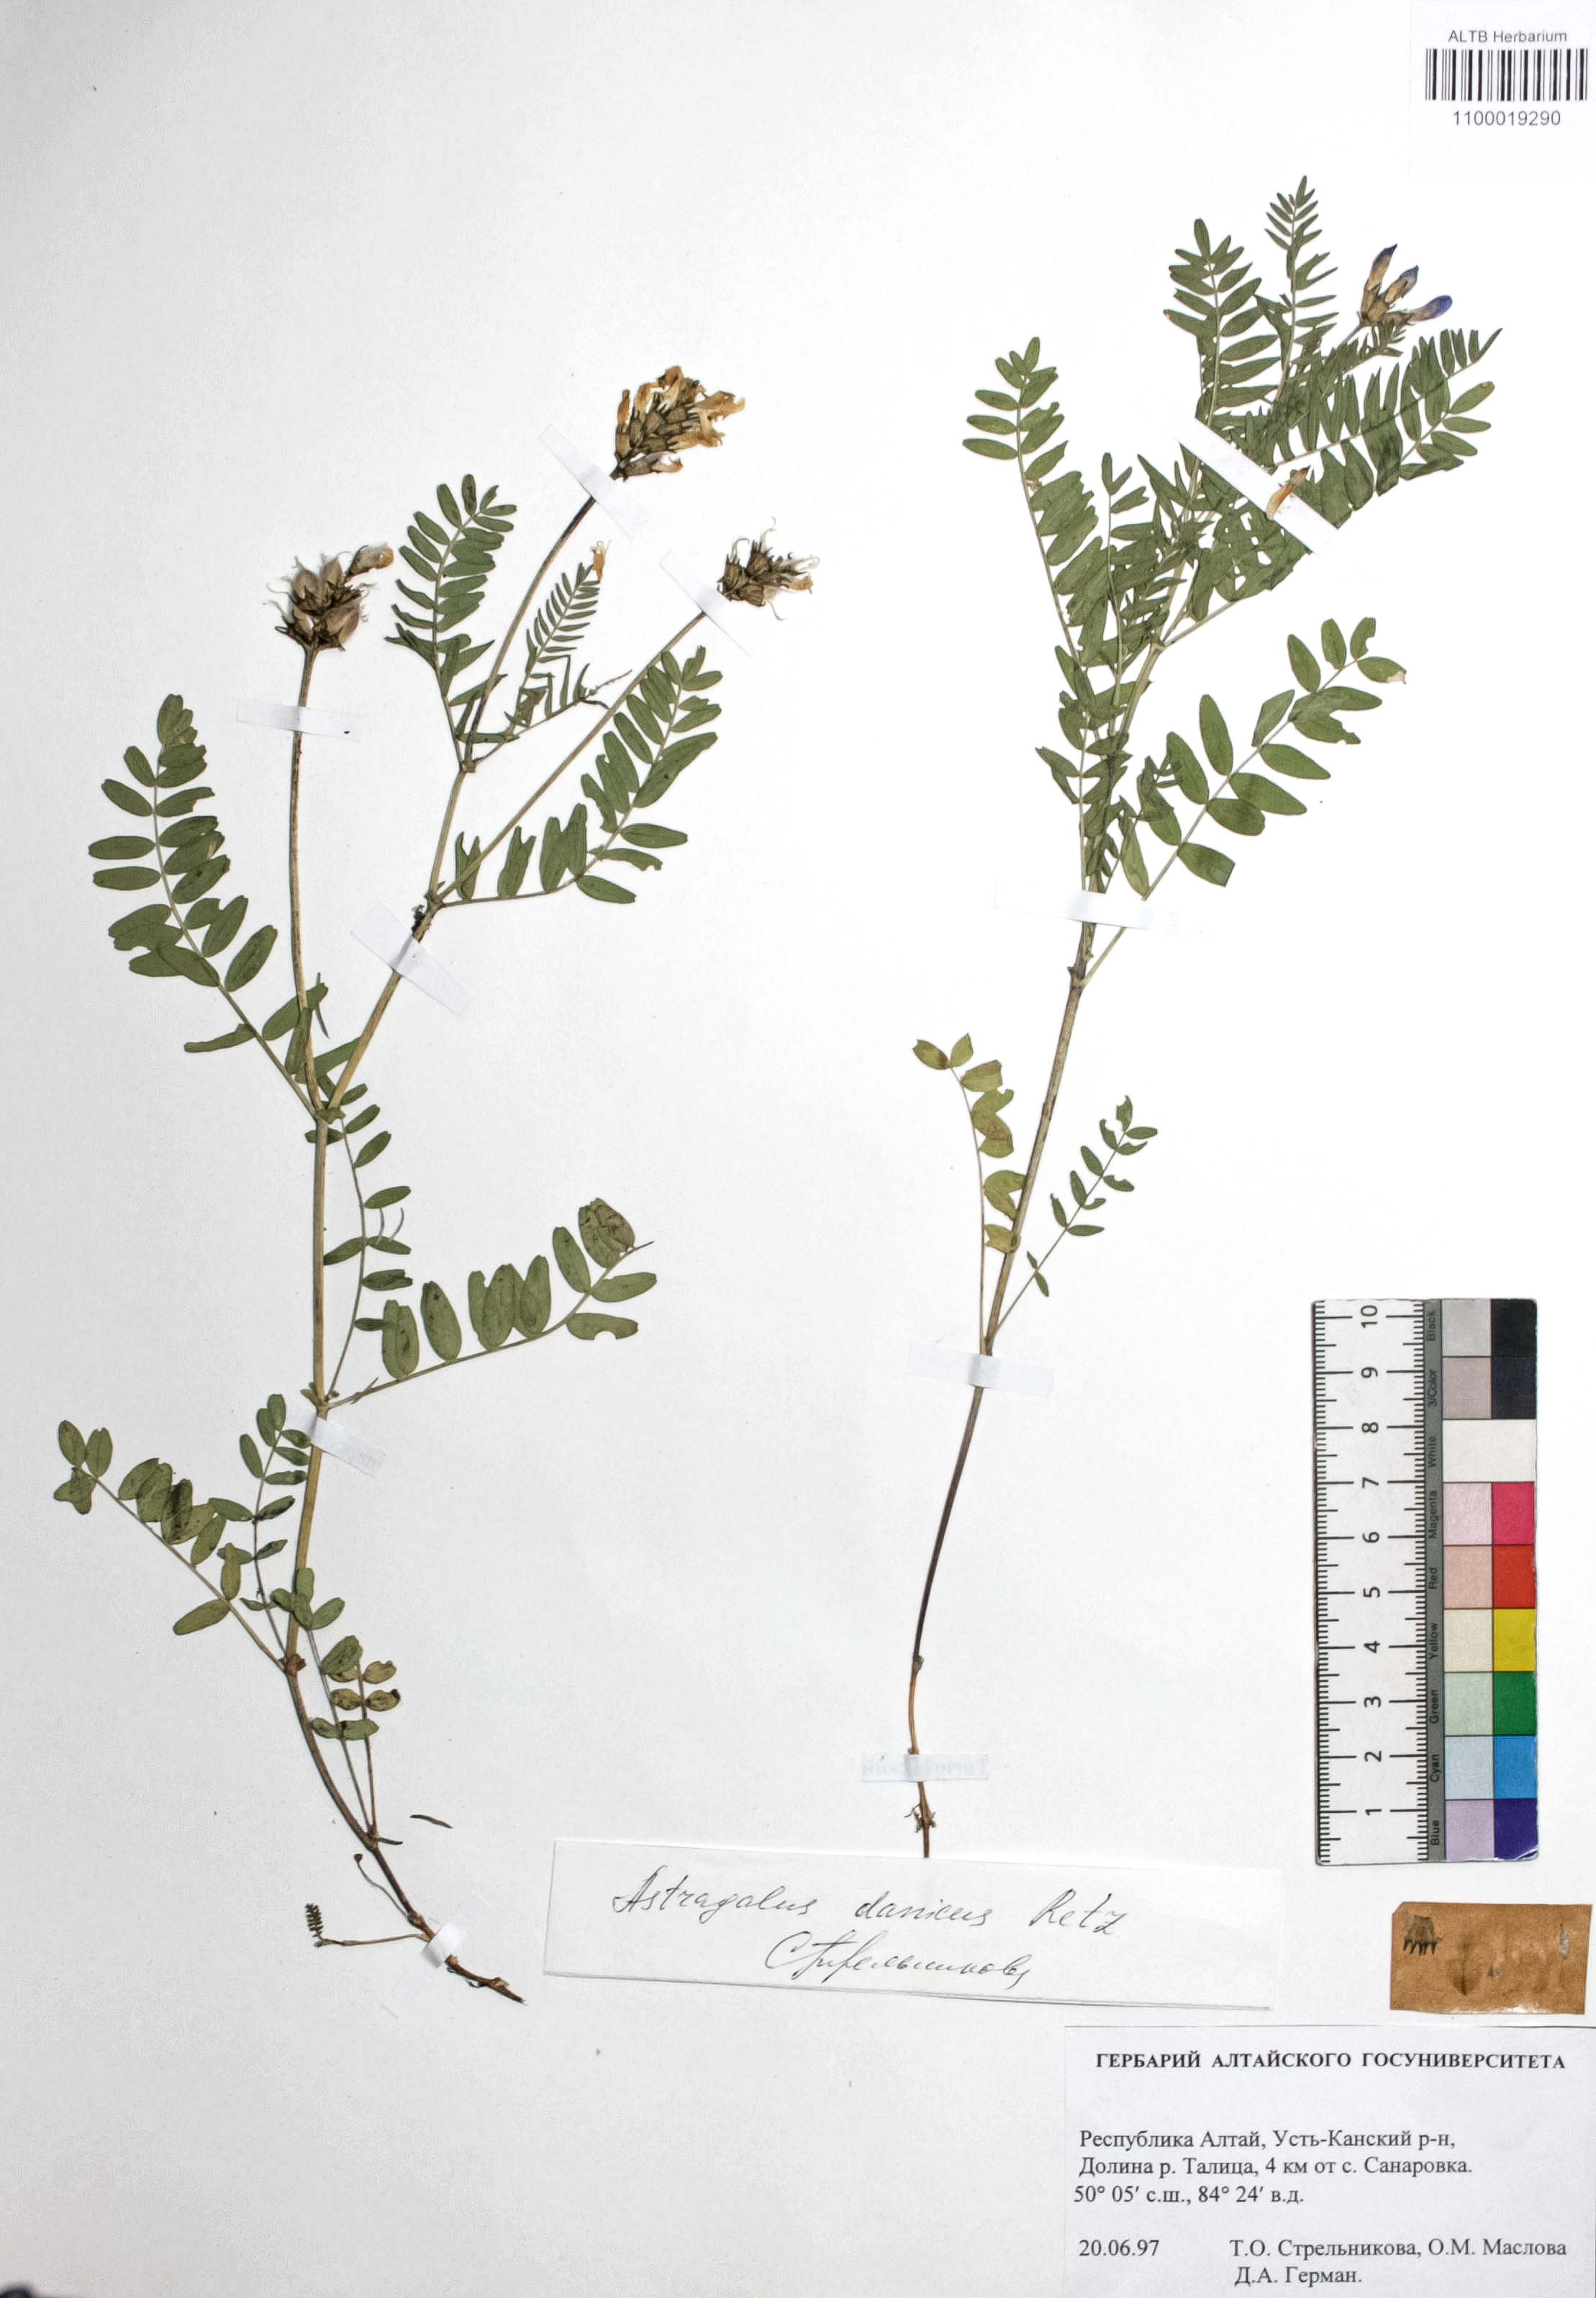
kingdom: Plantae
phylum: Tracheophyta
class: Magnoliopsida
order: Fabales
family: Fabaceae
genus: Astragalus
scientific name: Astragalus danicus
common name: Purple milk-vetch
